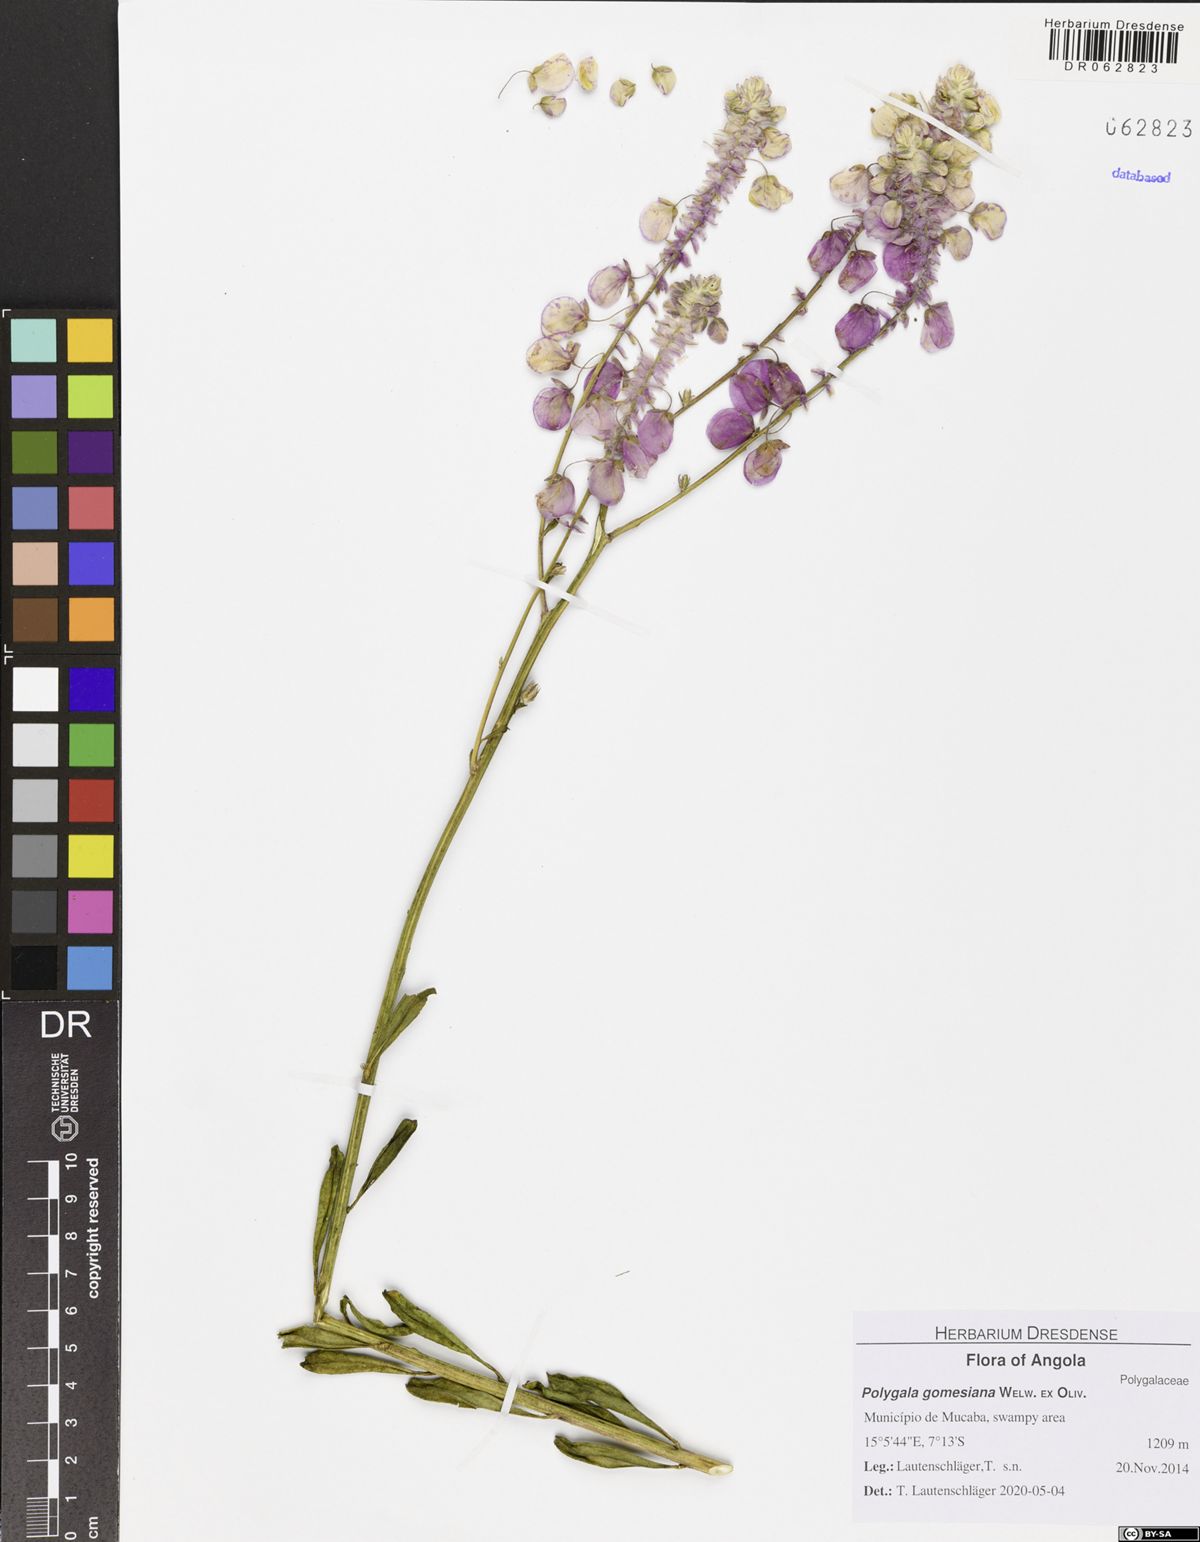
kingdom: Plantae
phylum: Tracheophyta
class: Magnoliopsida
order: Fabales
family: Polygalaceae
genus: Polygala
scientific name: Polygala gomesiana
